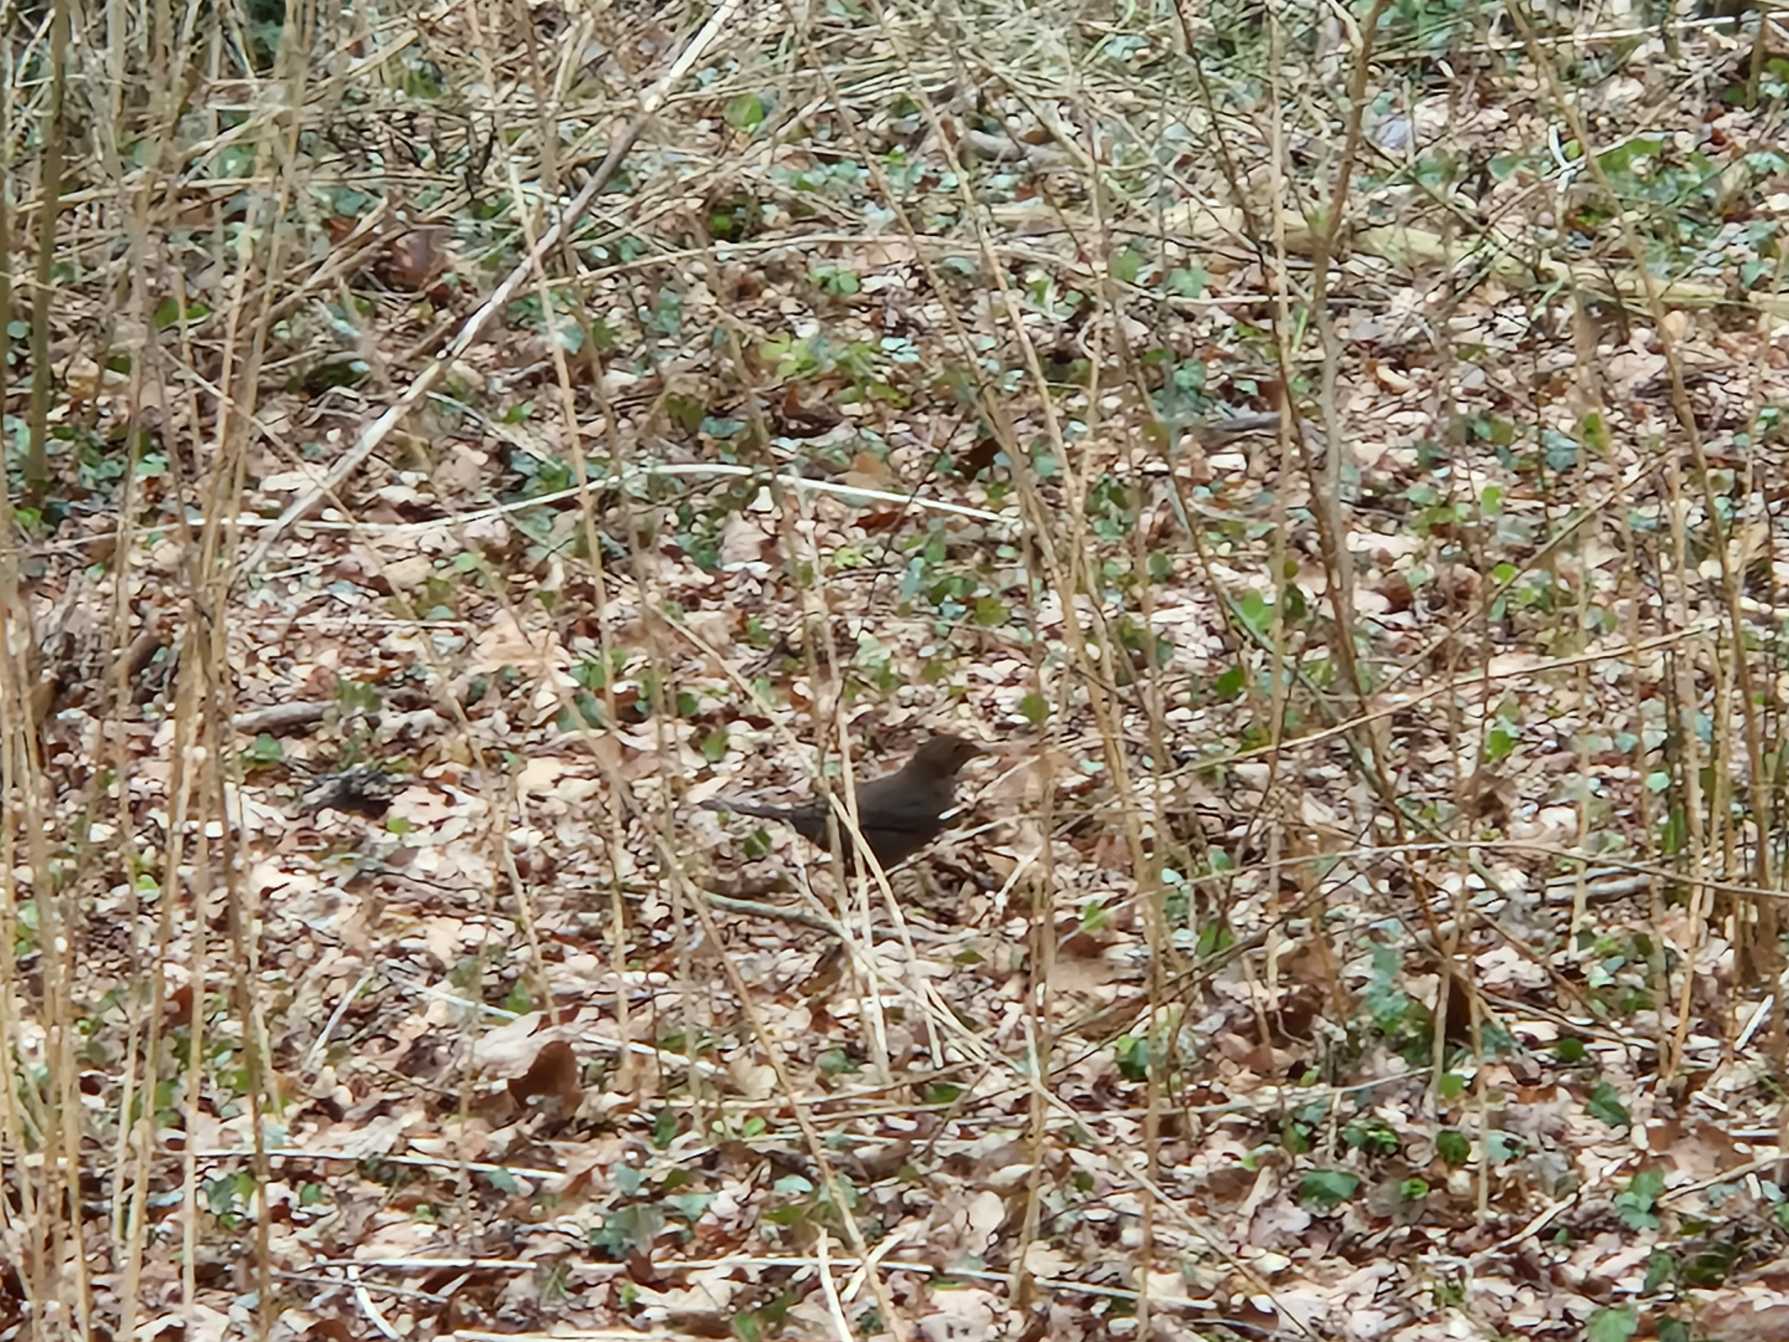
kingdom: Animalia
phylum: Chordata
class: Aves
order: Passeriformes
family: Turdidae
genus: Turdus
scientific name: Turdus merula
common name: Solsort
